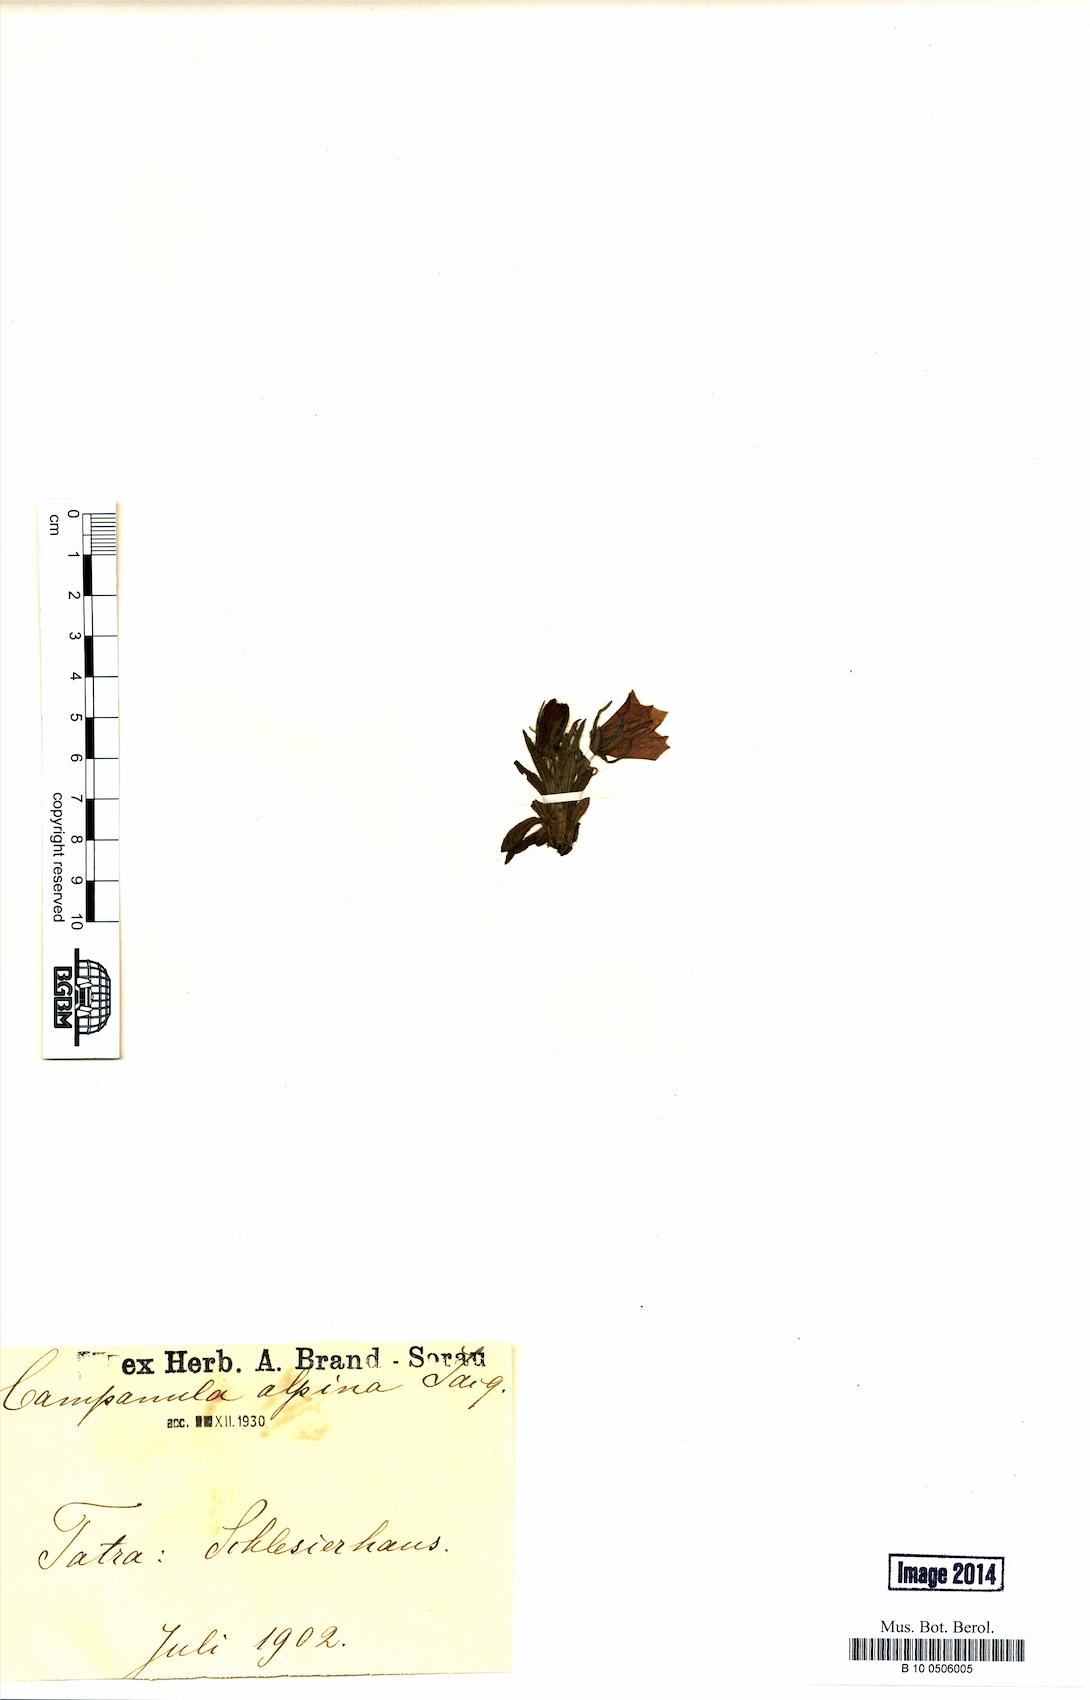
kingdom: Plantae
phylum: Tracheophyta
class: Magnoliopsida
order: Asterales
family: Campanulaceae
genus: Campanula
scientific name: Campanula alpina
